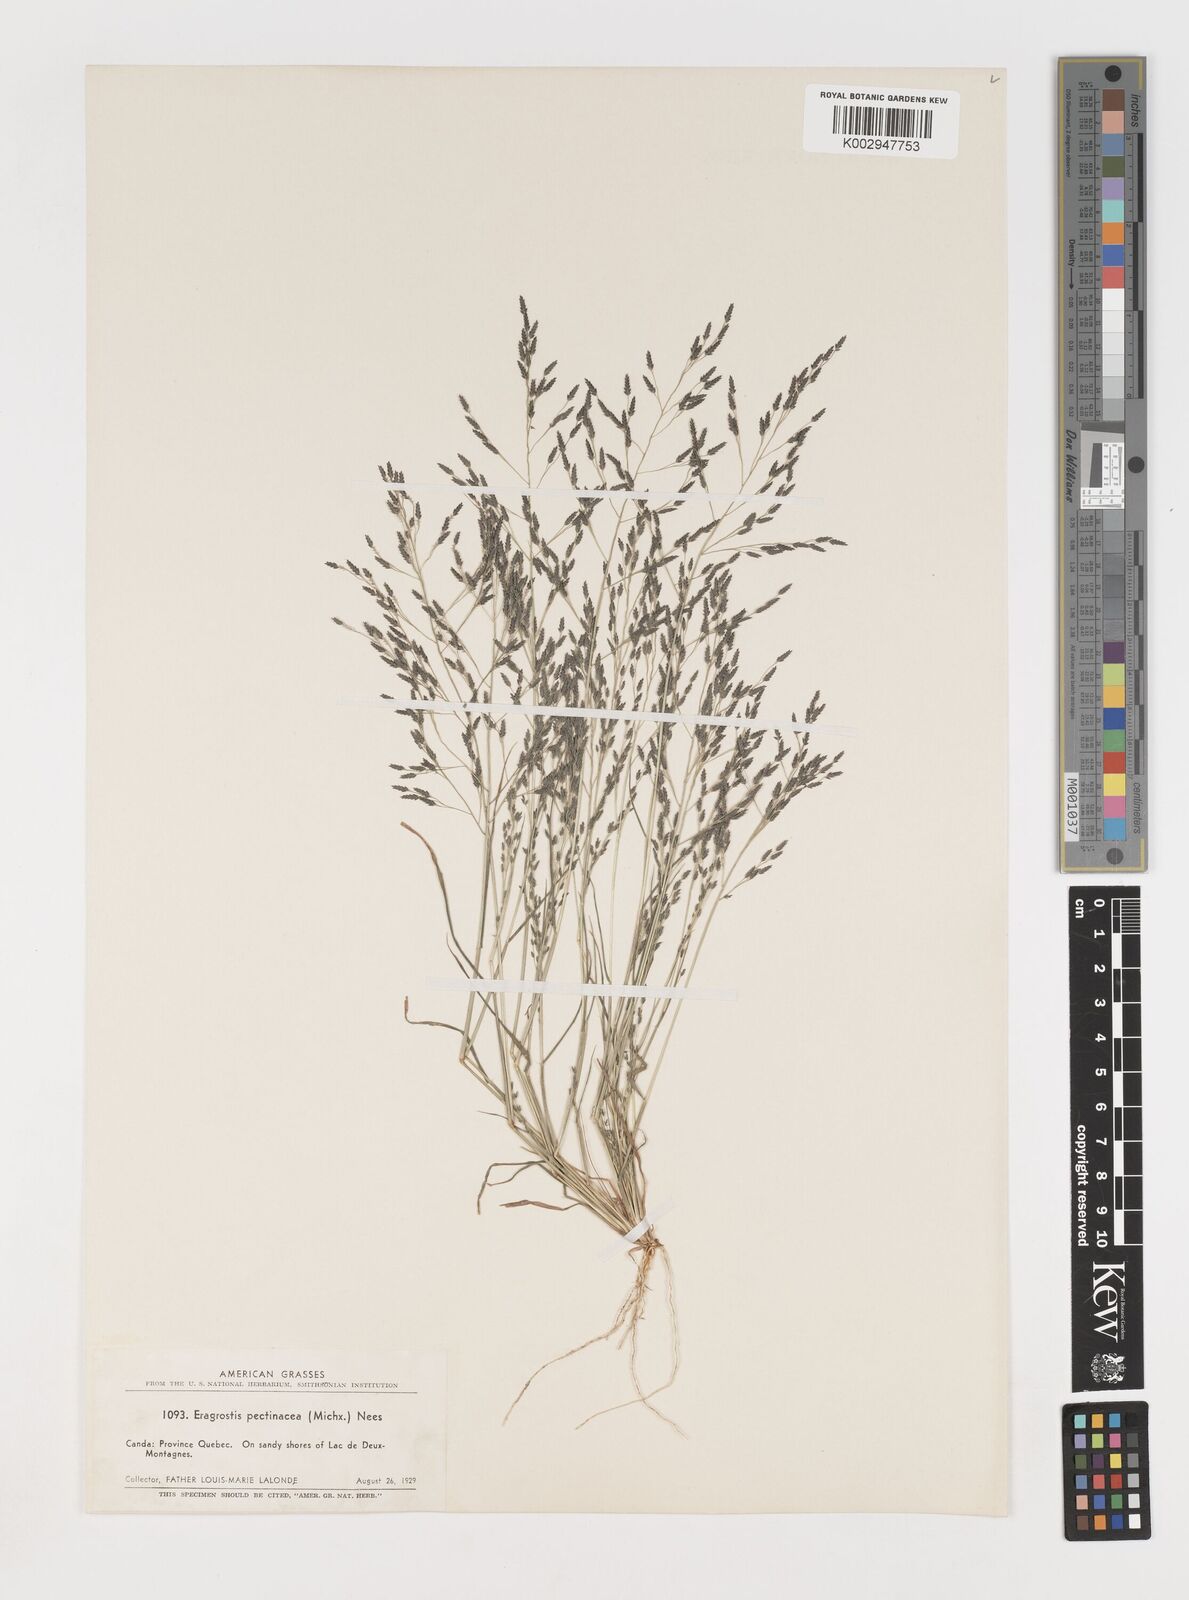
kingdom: Plantae
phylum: Tracheophyta
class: Liliopsida
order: Poales
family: Poaceae
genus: Eragrostis
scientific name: Eragrostis pectinacea
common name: Tufted lovegrass
